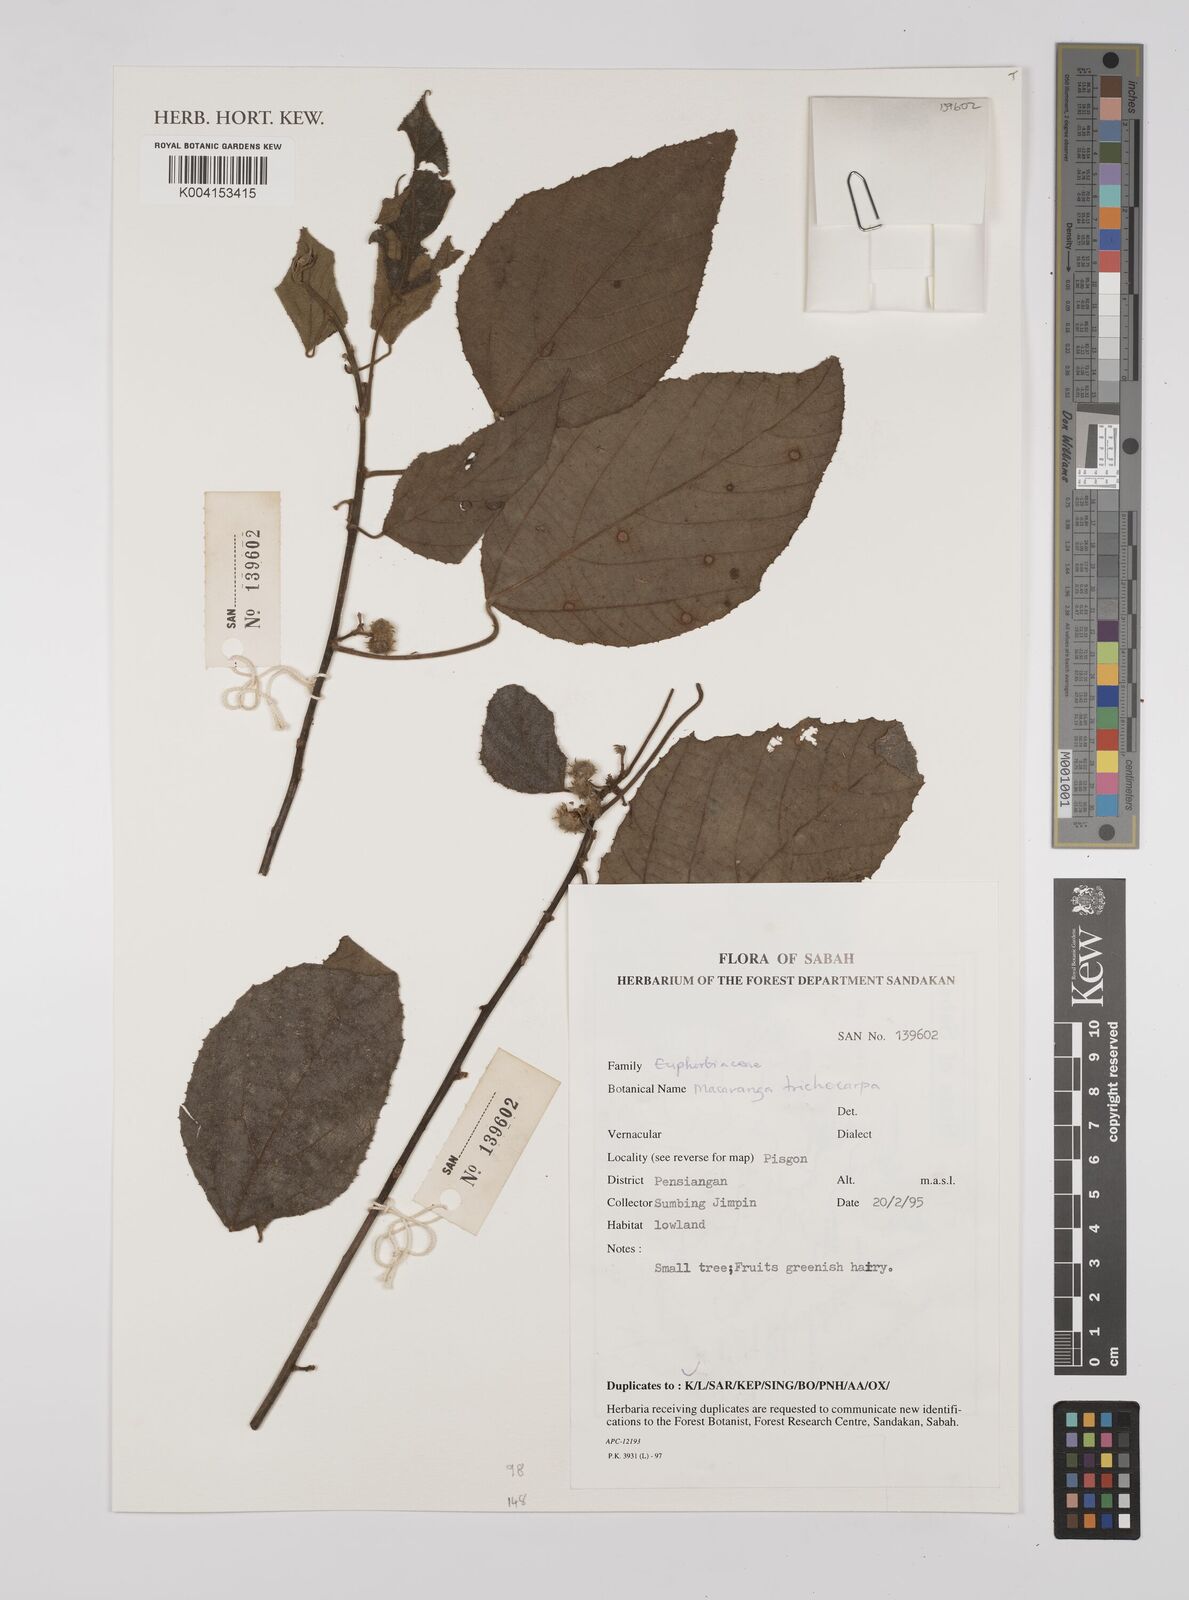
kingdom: Plantae
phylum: Tracheophyta
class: Magnoliopsida
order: Malpighiales
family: Euphorbiaceae
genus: Macaranga
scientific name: Macaranga trichocarpa
